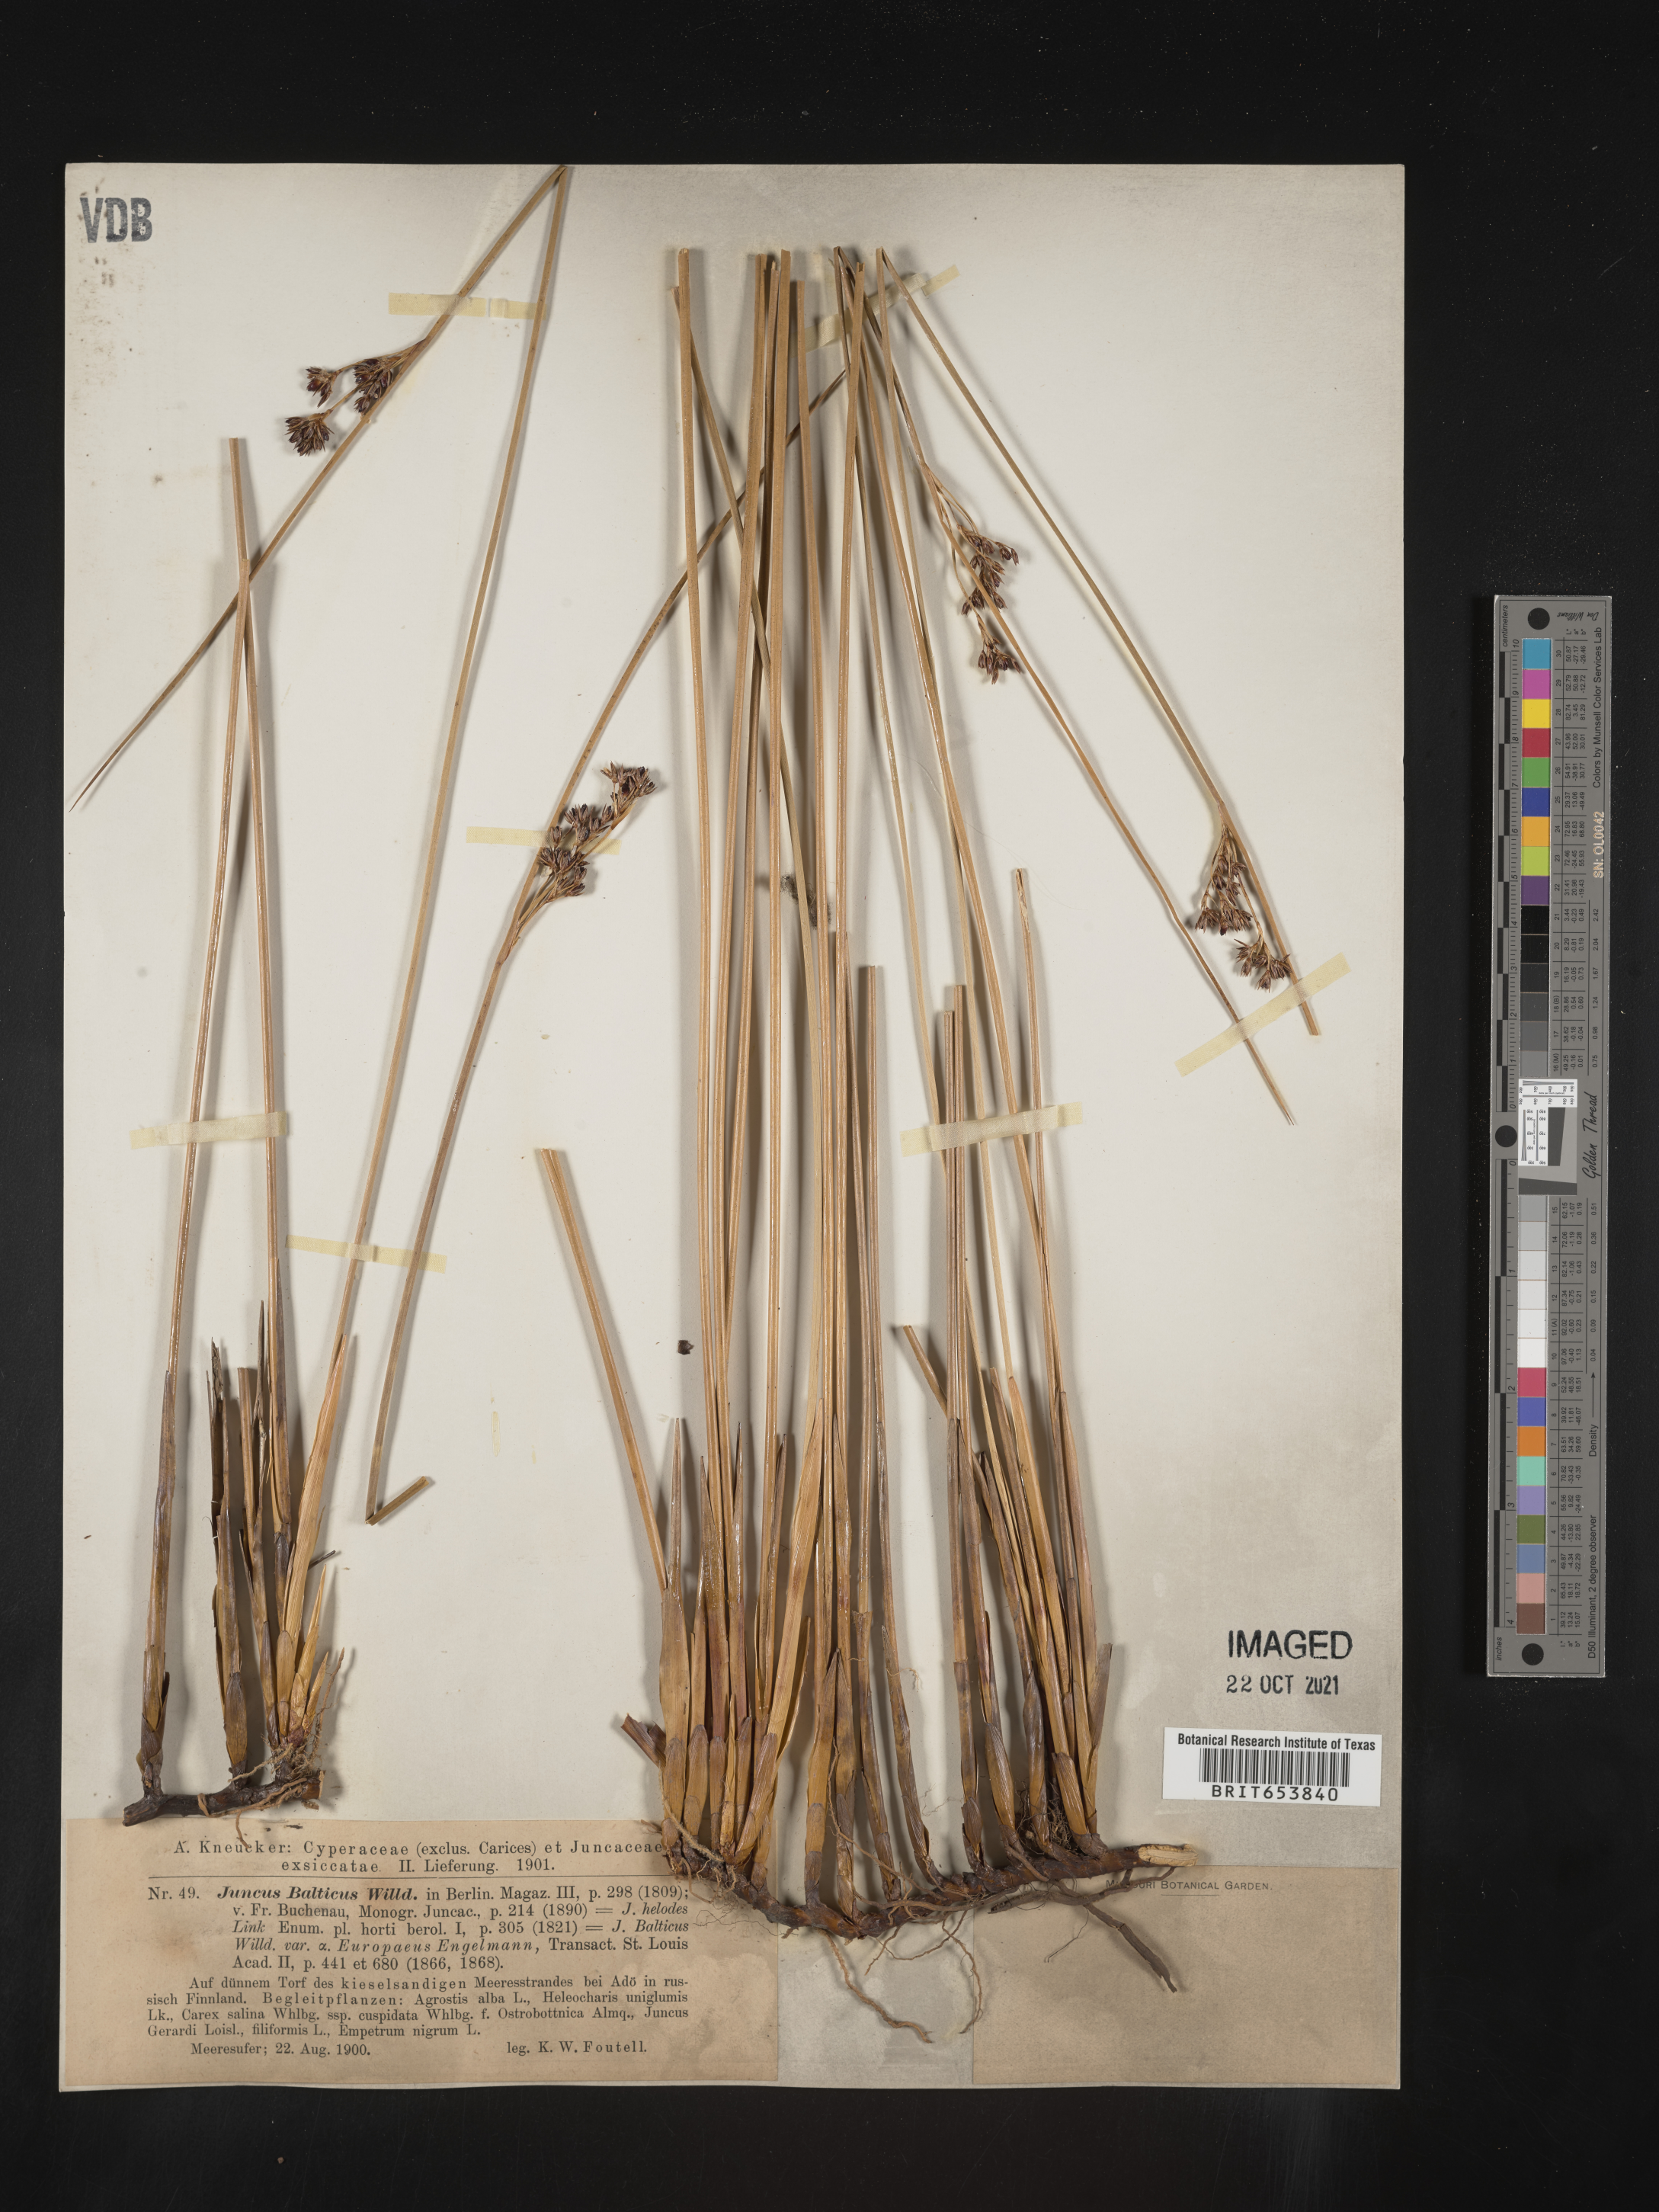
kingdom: Plantae
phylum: Tracheophyta
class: Liliopsida
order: Poales
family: Juncaceae
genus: Juncus
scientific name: Juncus
